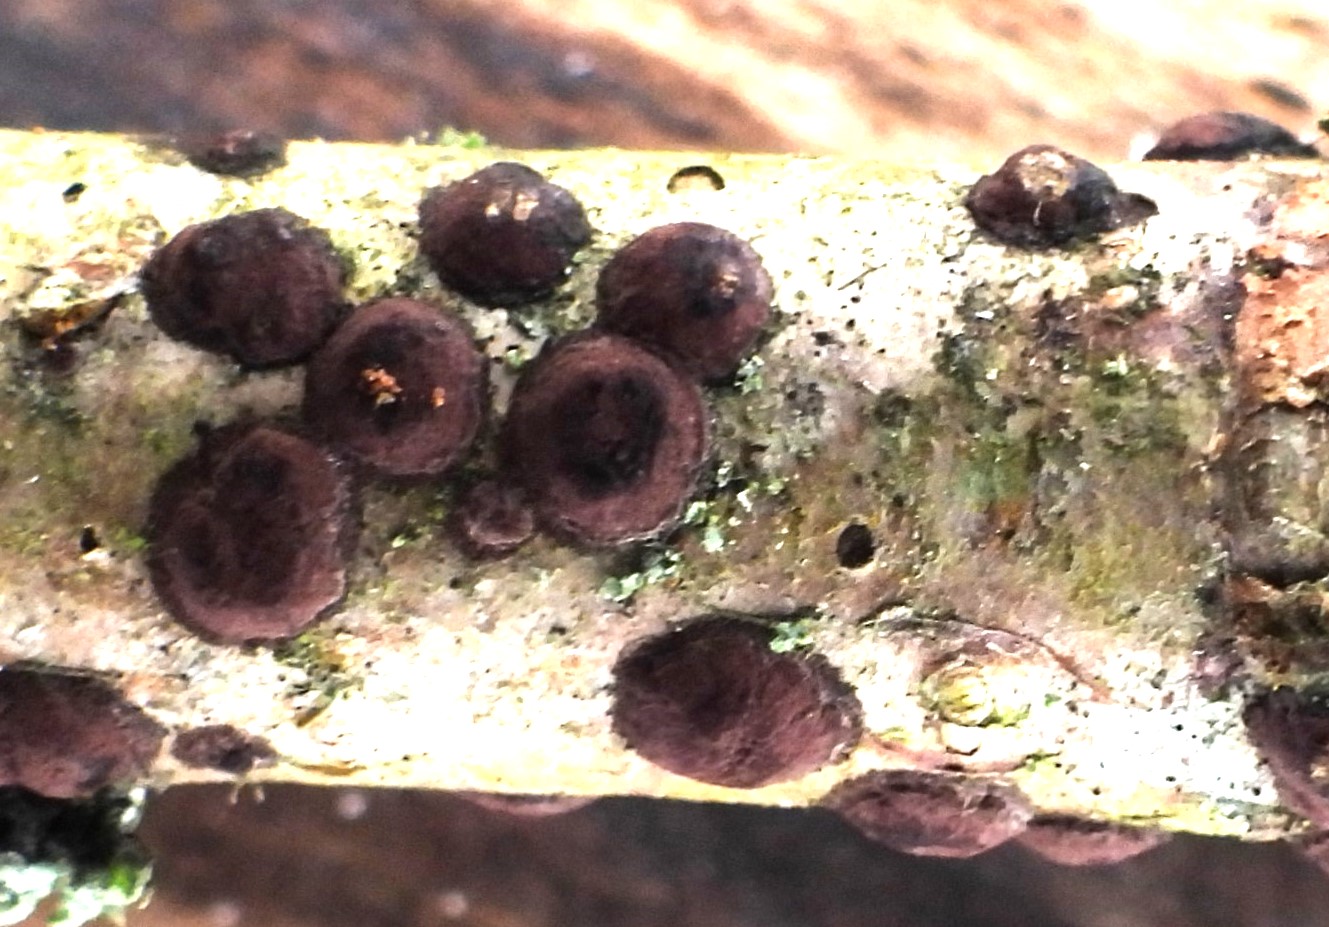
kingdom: Fungi
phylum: Ascomycota
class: Sordariomycetes
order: Xylariales
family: Hypoxylaceae
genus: Hypoxylon
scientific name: Hypoxylon fuscum
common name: kegleformet kulbær
